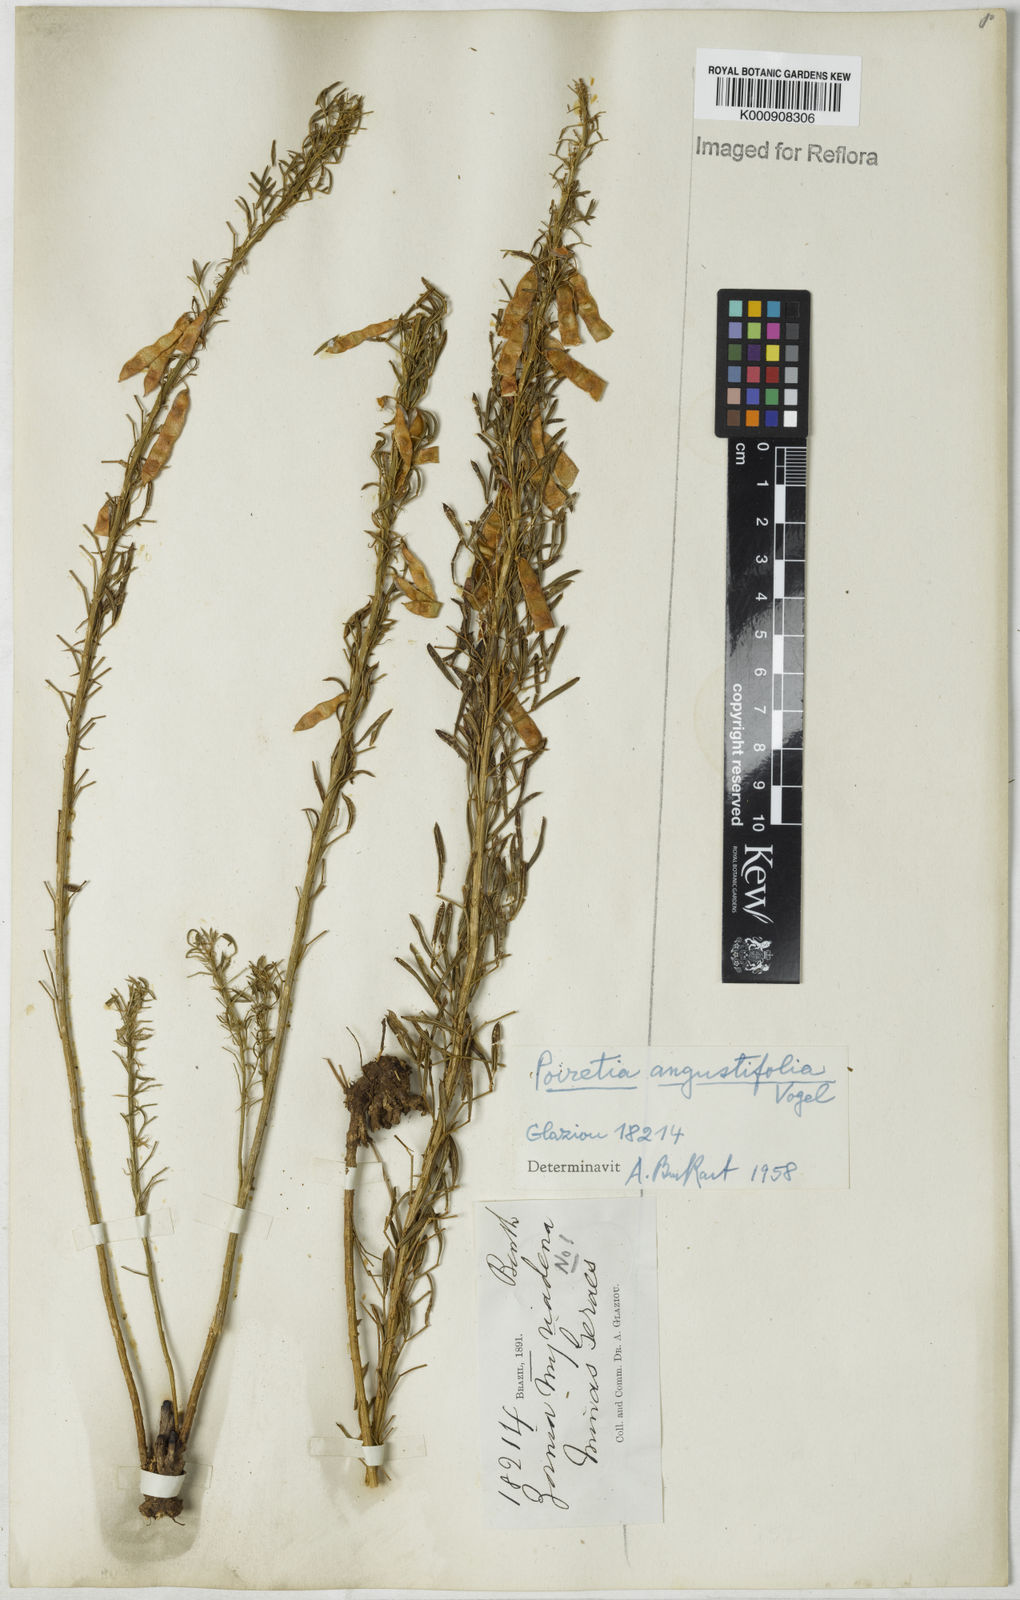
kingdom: Plantae
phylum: Tracheophyta
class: Magnoliopsida
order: Fabales
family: Fabaceae
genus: Poiretia
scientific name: Poiretia angustifolia
